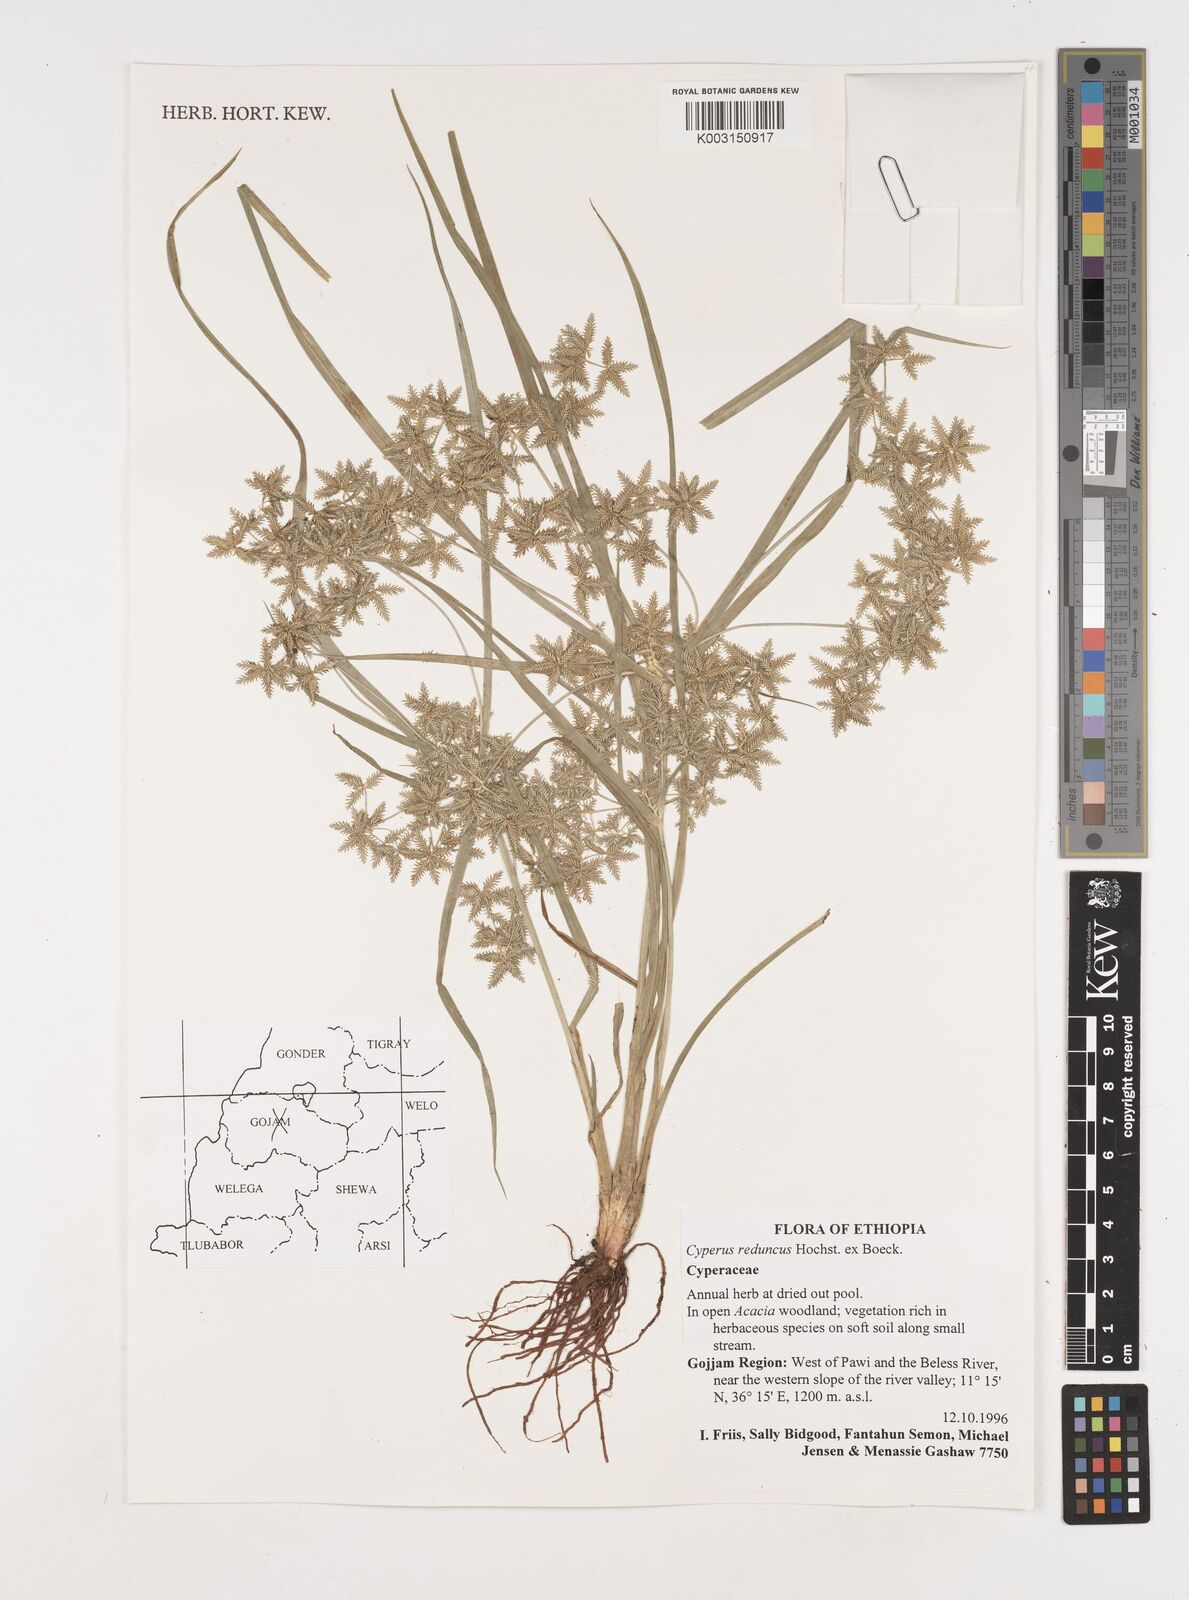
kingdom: Plantae
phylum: Tracheophyta
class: Liliopsida
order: Poales
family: Cyperaceae
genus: Cyperus
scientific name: Cyperus reduncus
